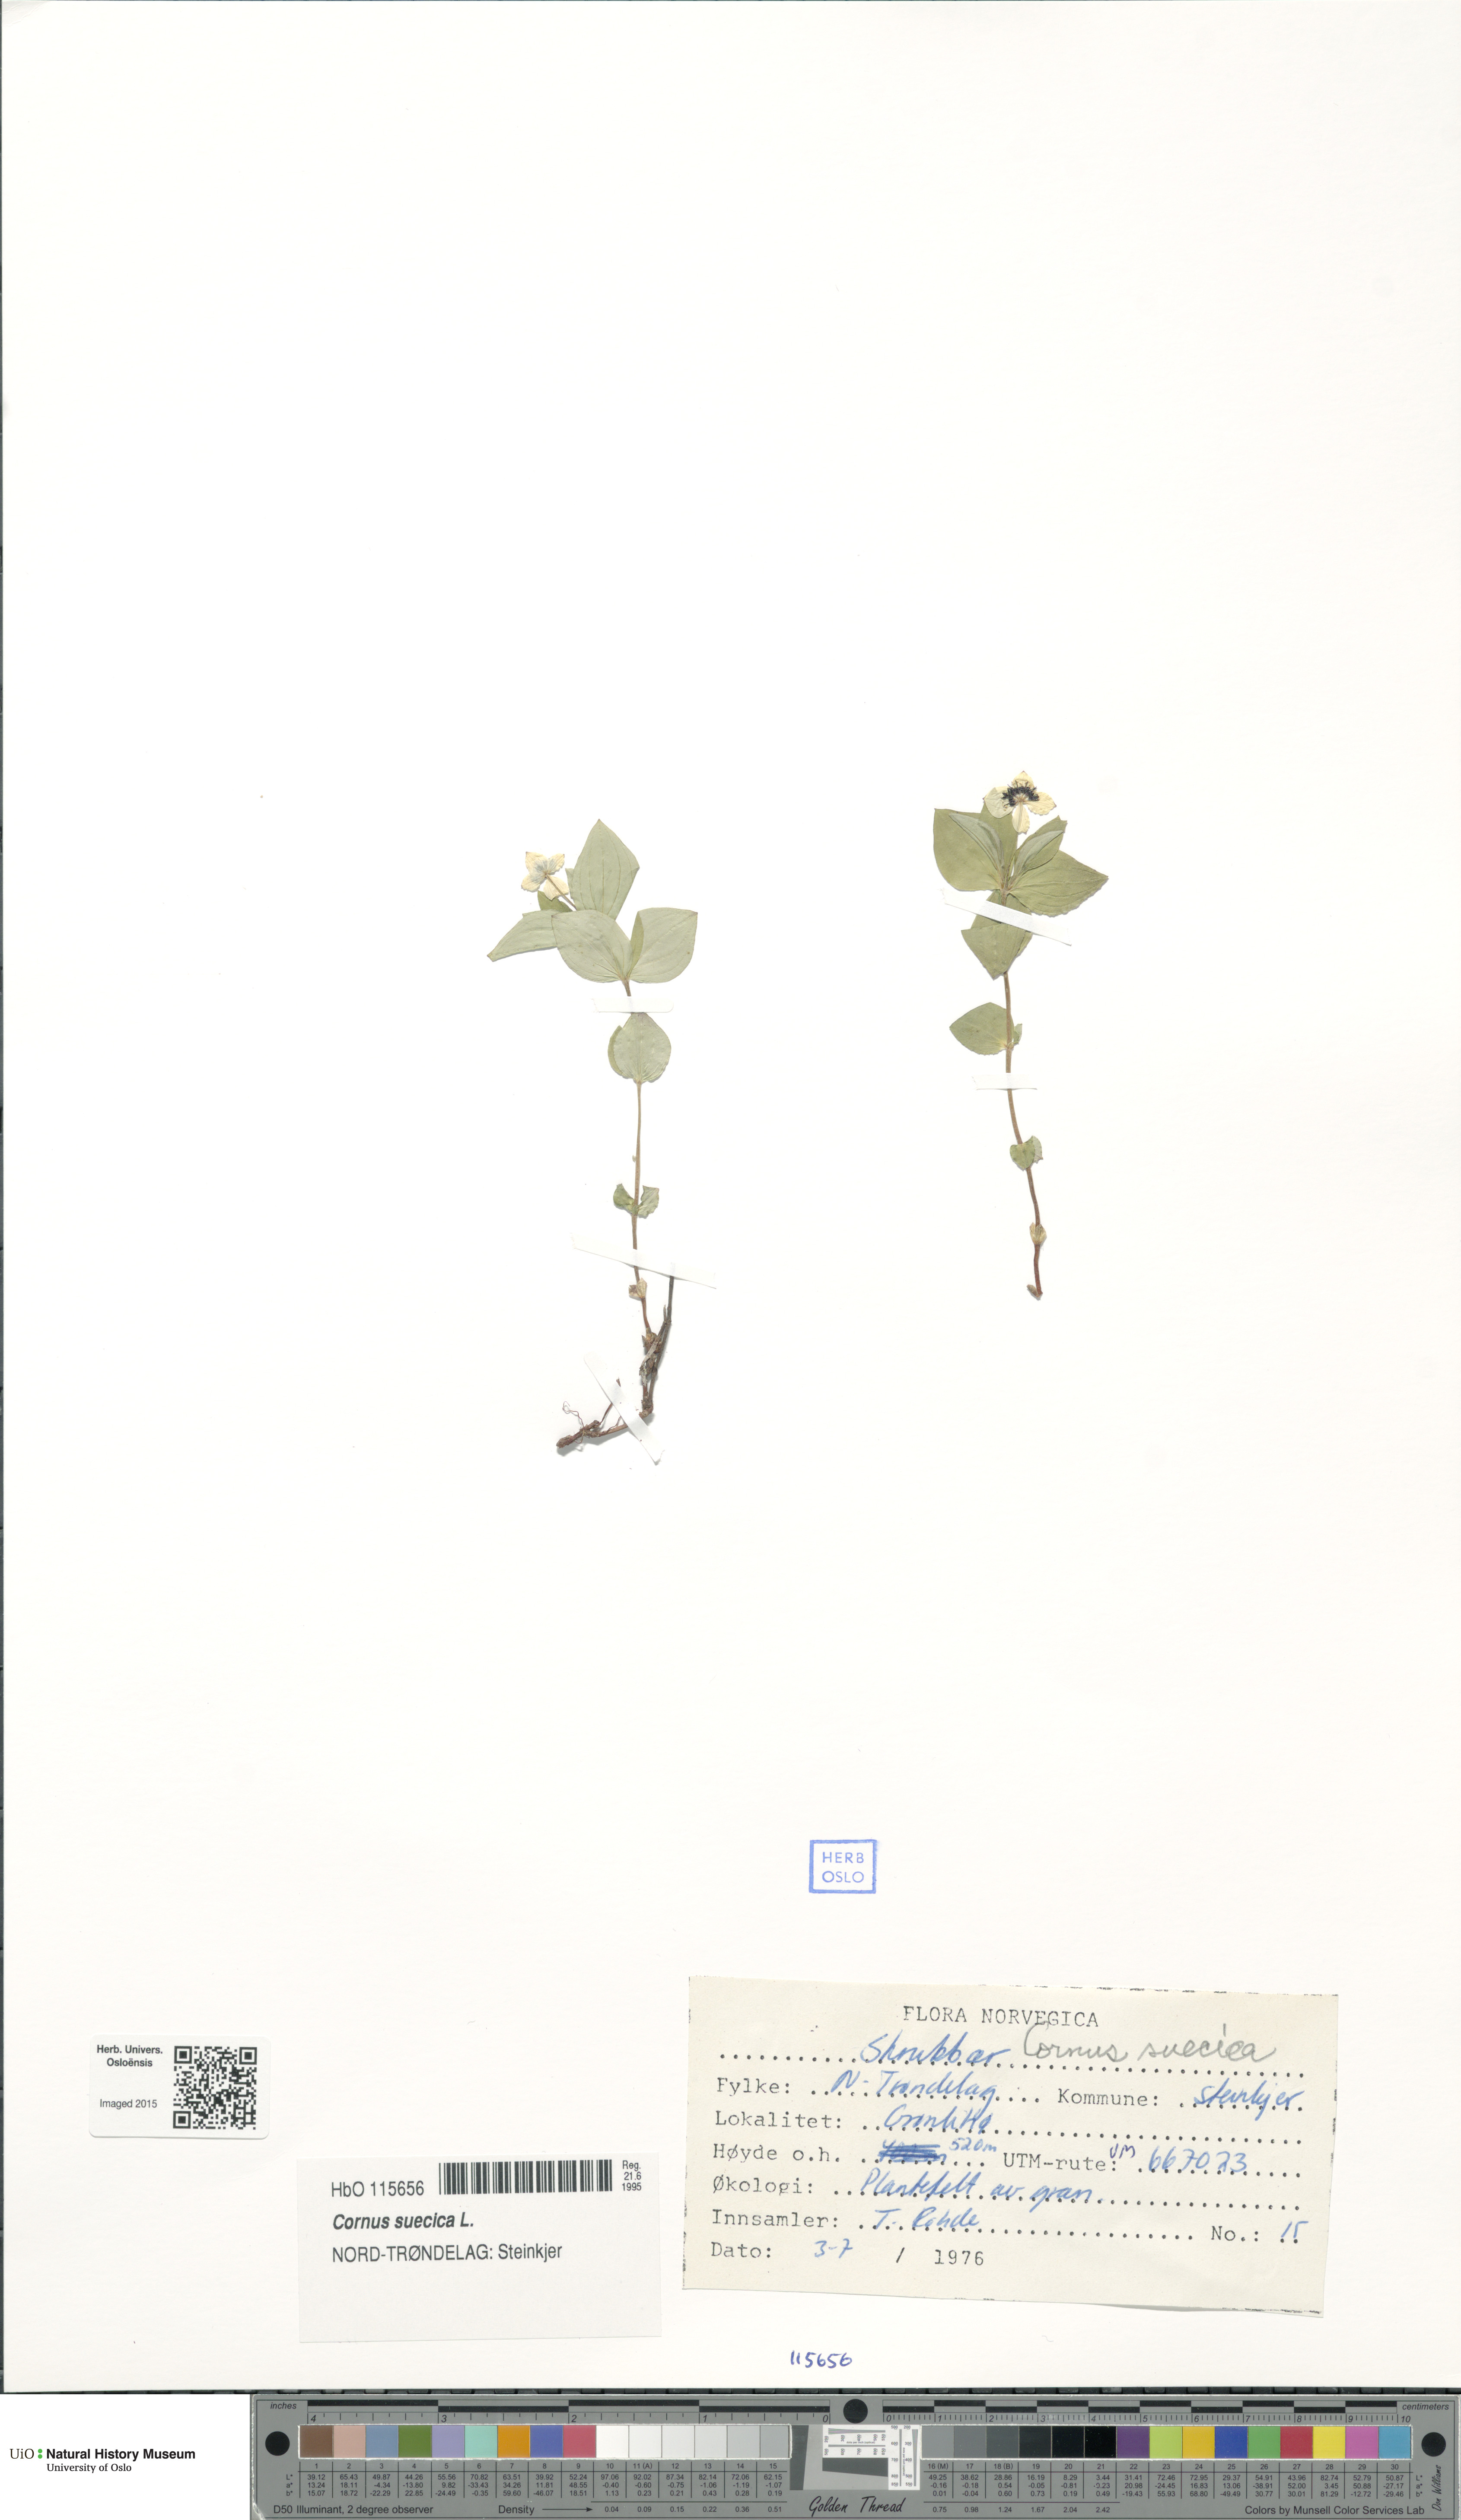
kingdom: Plantae
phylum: Tracheophyta
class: Magnoliopsida
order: Cornales
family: Cornaceae
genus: Cornus
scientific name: Cornus suecica
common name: Dwarf cornel
